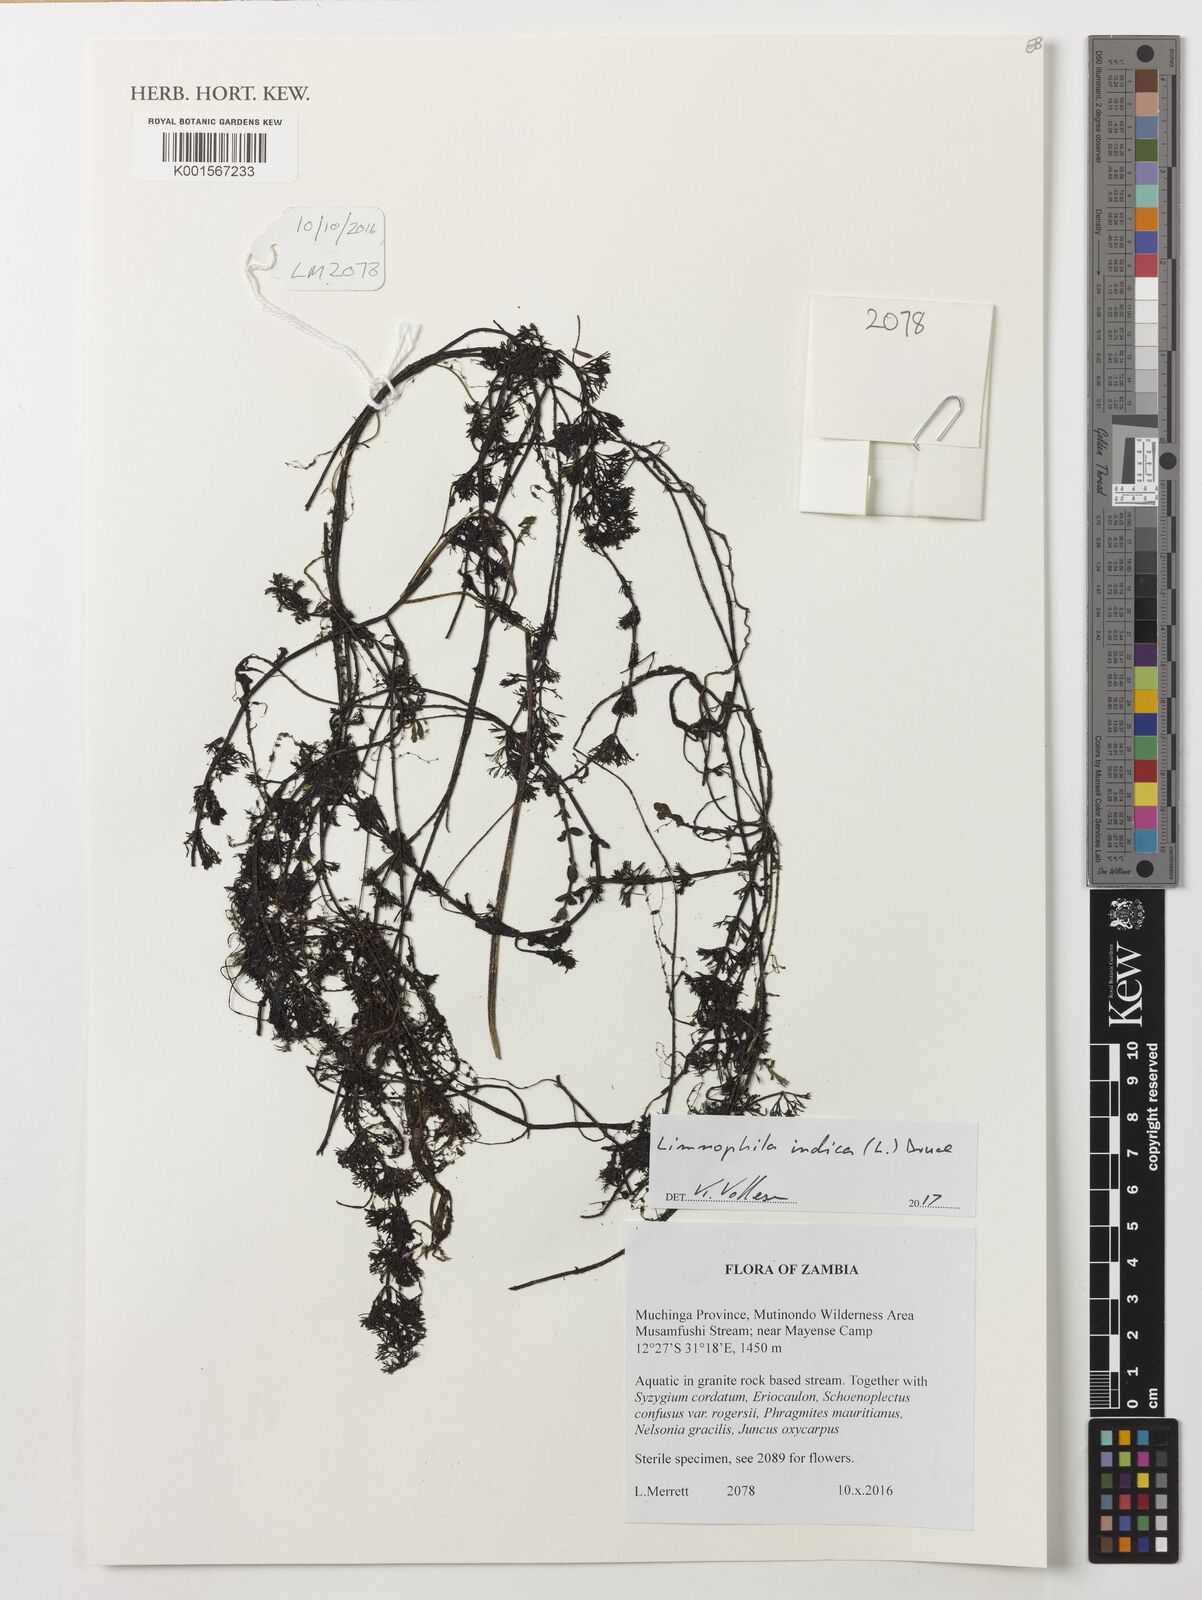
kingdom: Plantae
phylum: Tracheophyta
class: Magnoliopsida
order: Lamiales
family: Plantaginaceae
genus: Limnophila
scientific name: Limnophila indica
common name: Indian marshweed
